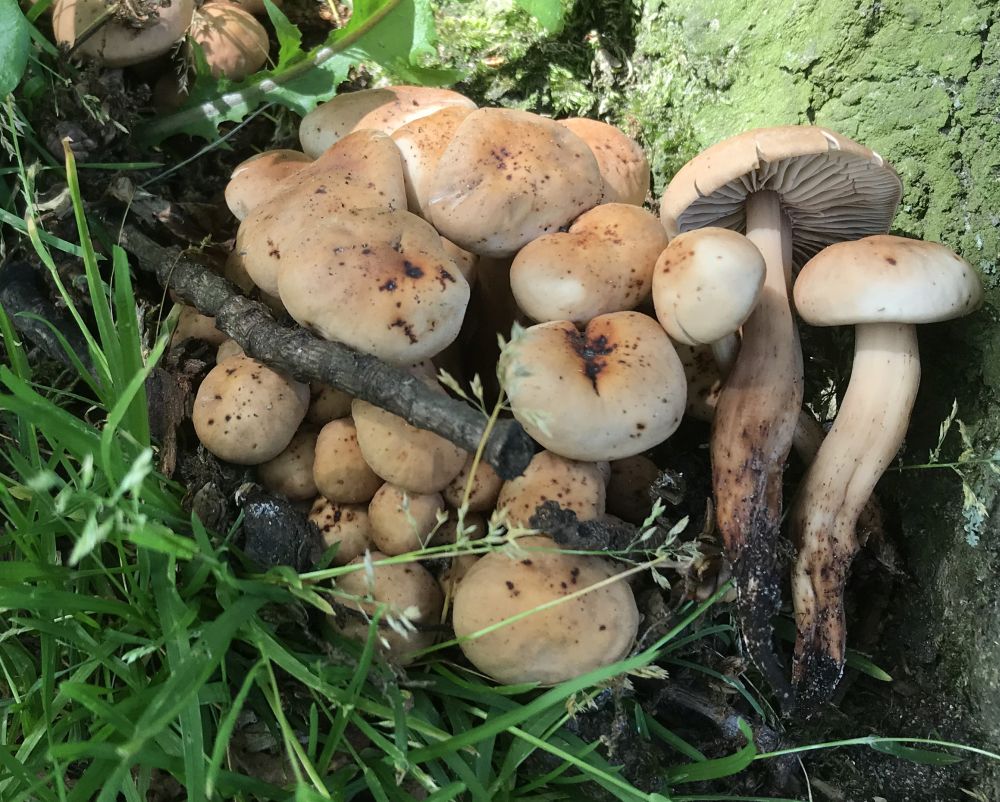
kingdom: Fungi
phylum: Basidiomycota
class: Agaricomycetes
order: Agaricales
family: Omphalotaceae
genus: Gymnopus
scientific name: Gymnopus fusipes
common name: tenstokket fladhat
